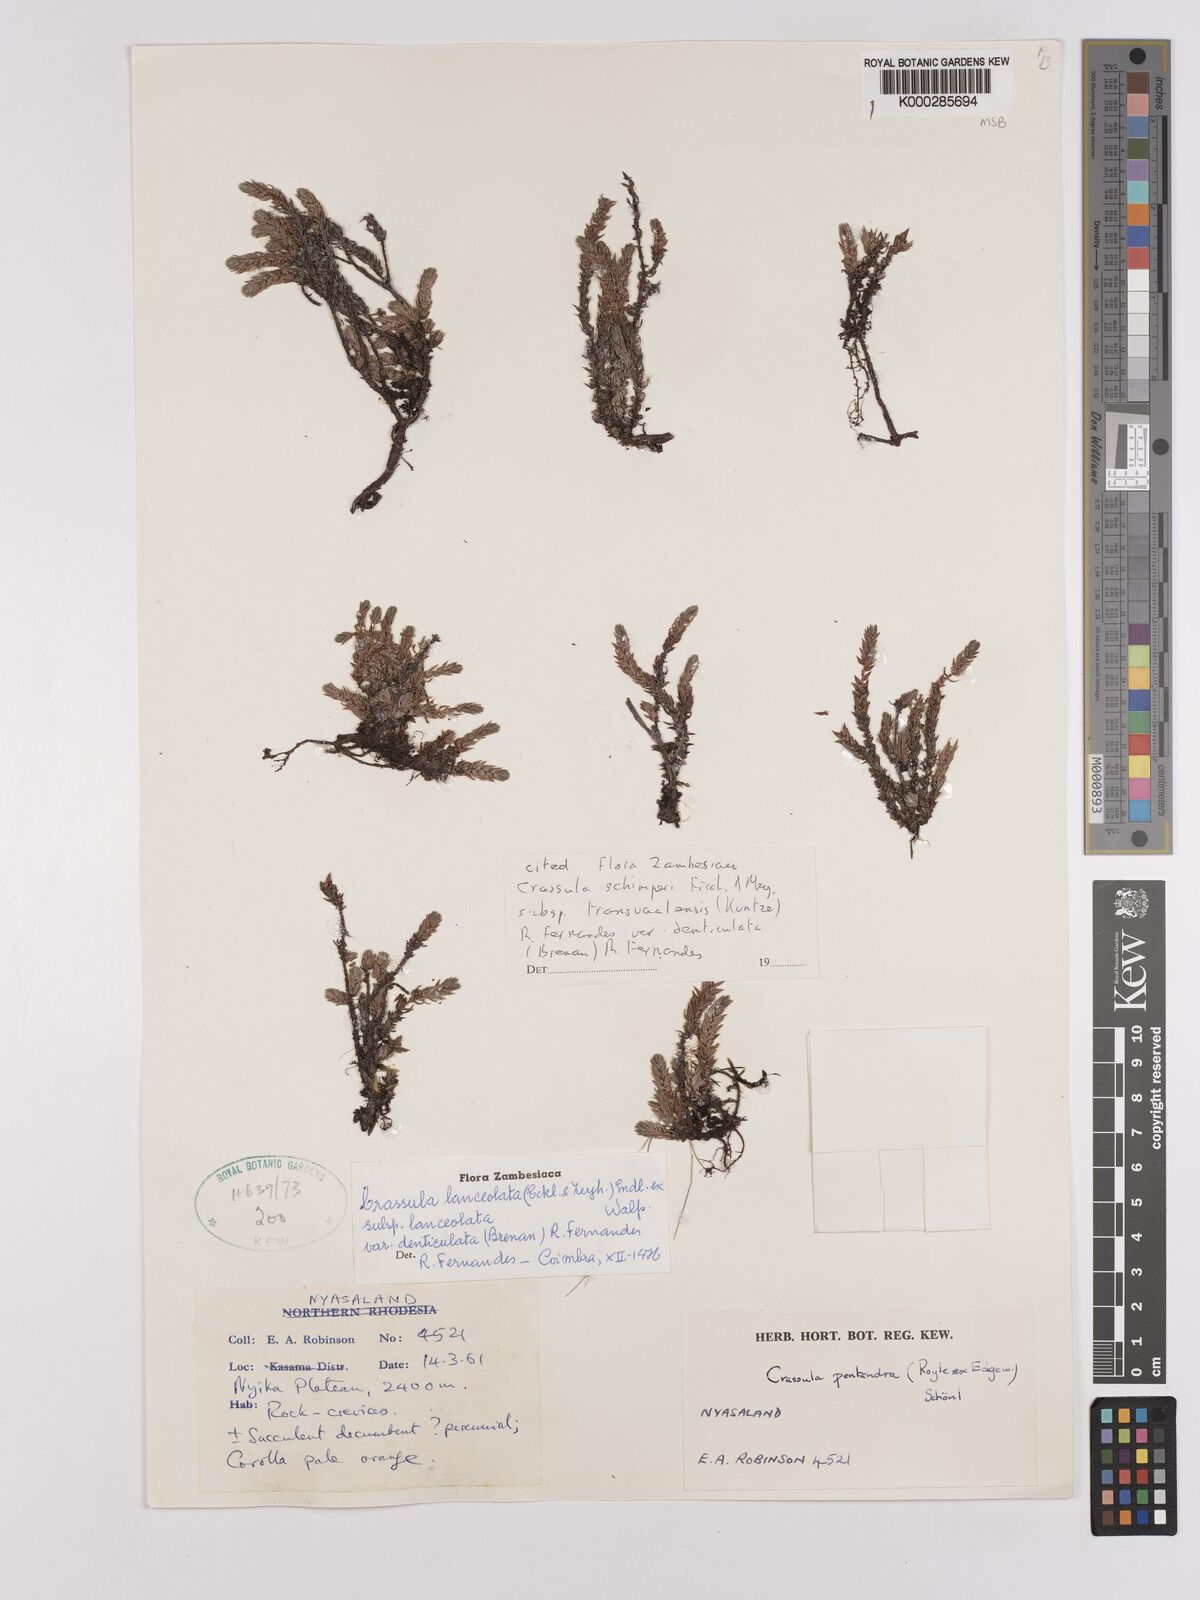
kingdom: Plantae
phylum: Tracheophyta
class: Magnoliopsida
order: Saxifragales
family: Crassulaceae
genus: Crassula
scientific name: Crassula lanceolata
